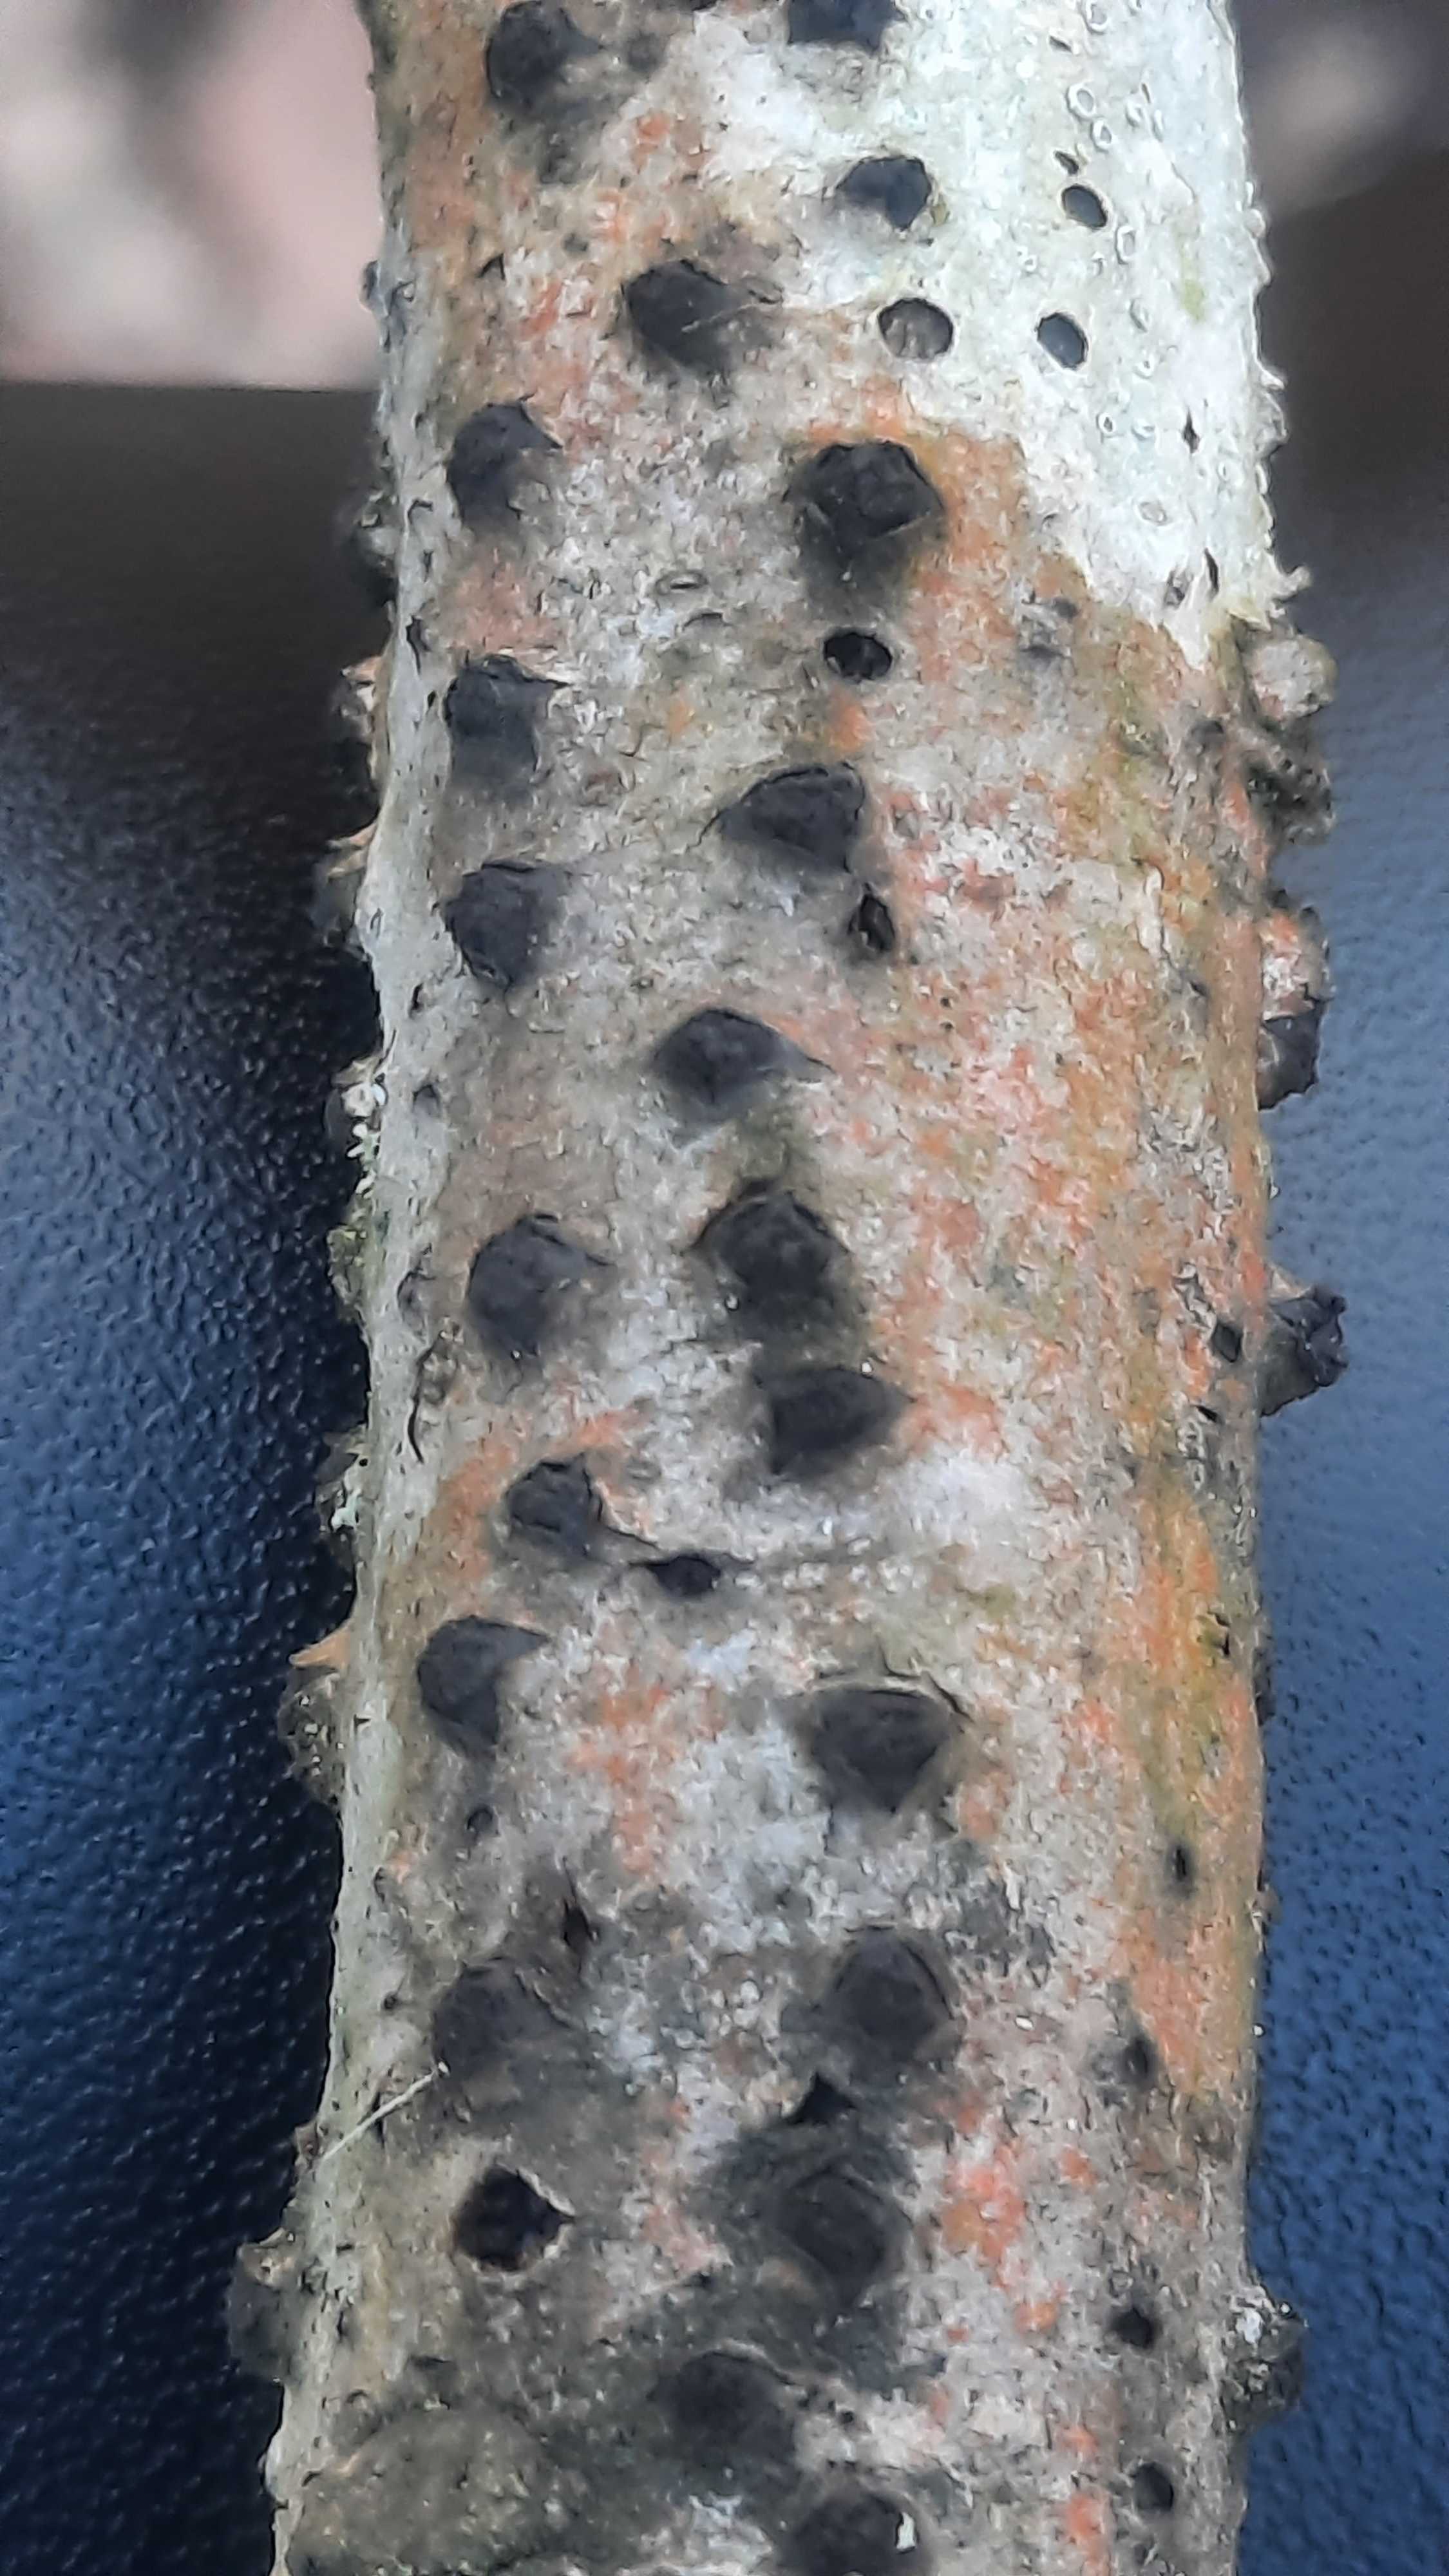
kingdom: Fungi
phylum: Ascomycota
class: Sordariomycetes
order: Xylariales
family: Diatrypaceae
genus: Diatrypella
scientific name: Diatrypella quercina
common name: ege-kulskorpe
